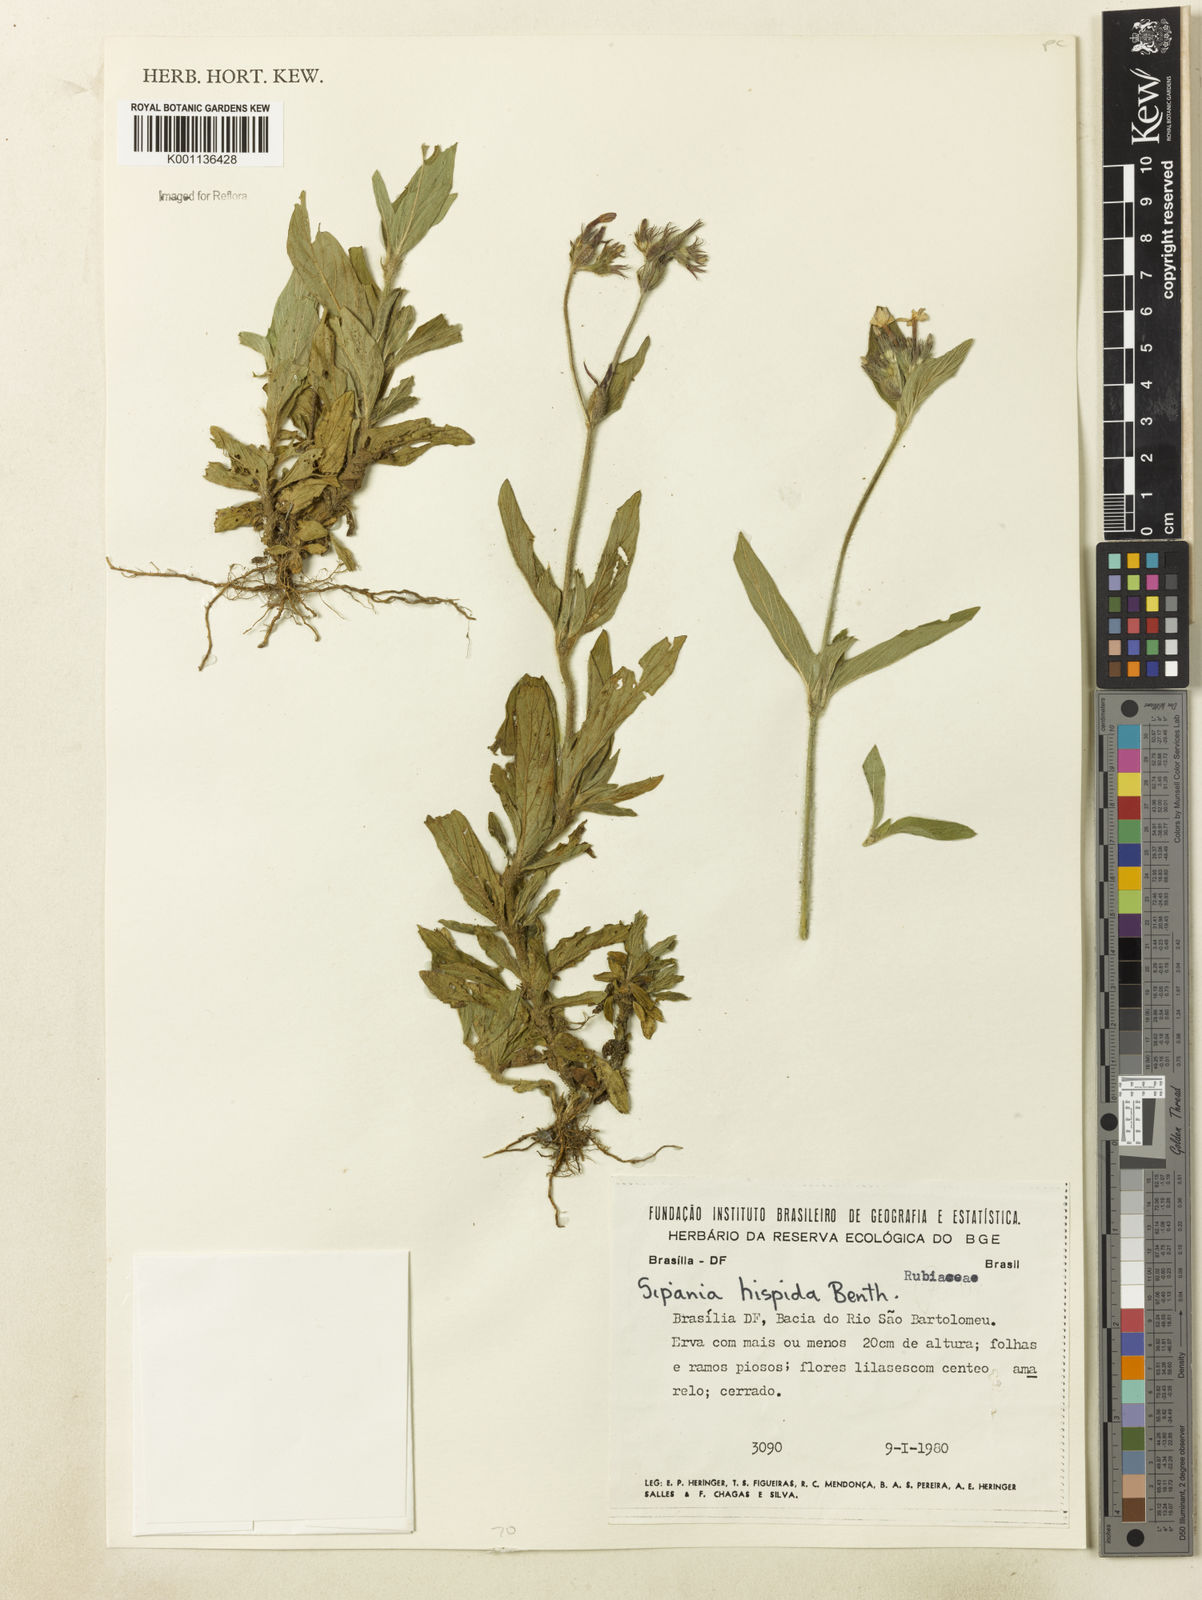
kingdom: Plantae
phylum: Tracheophyta
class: Magnoliopsida
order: Gentianales
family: Rubiaceae
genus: Sipanea
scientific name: Sipanea hispida
